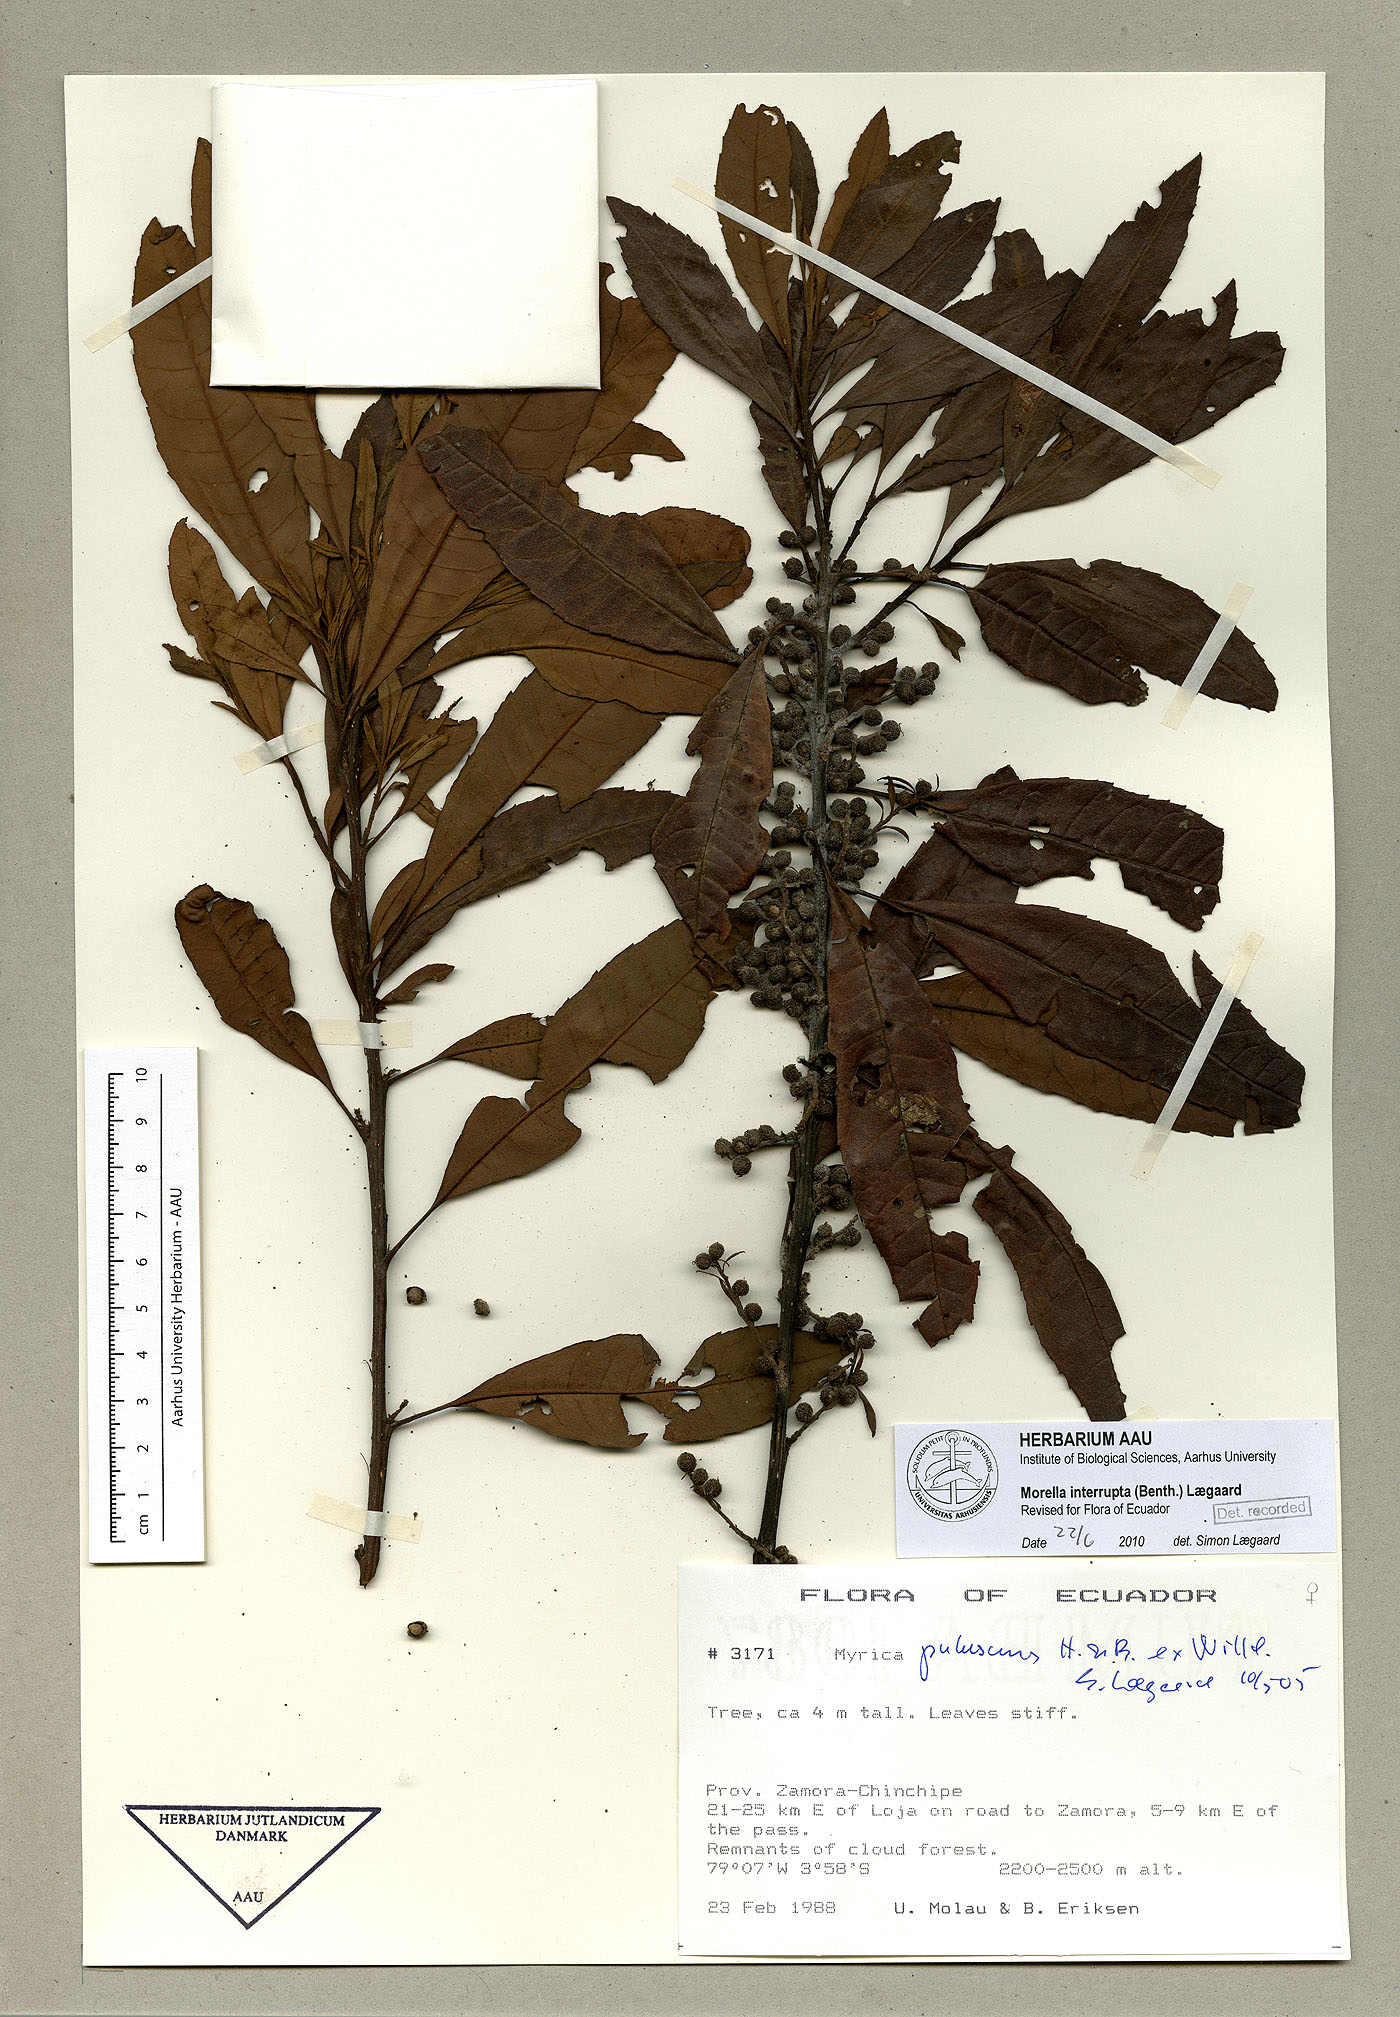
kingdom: Plantae
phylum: Tracheophyta
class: Magnoliopsida
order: Fagales
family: Myricaceae
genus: Morella
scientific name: Morella interrupta
